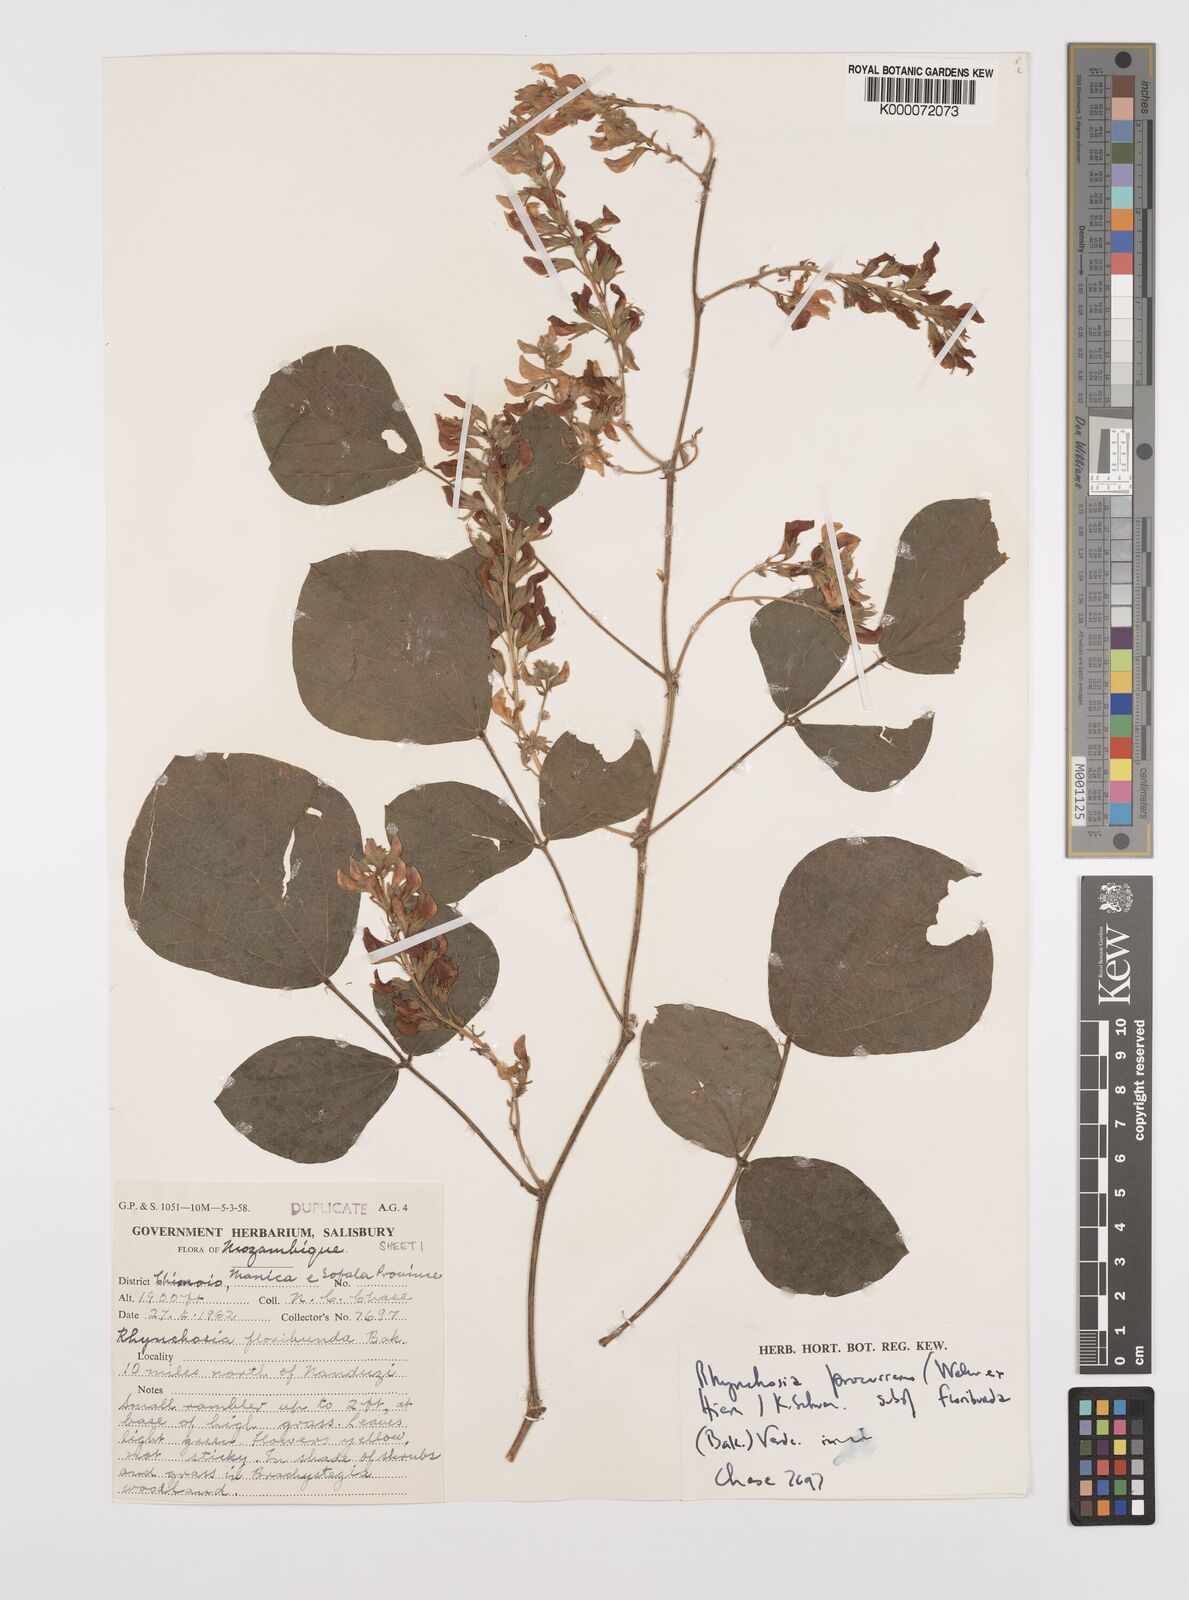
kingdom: Plantae
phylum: Tracheophyta
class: Magnoliopsida
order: Fabales
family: Fabaceae
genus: Rhynchosia
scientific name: Rhynchosia procurrens
